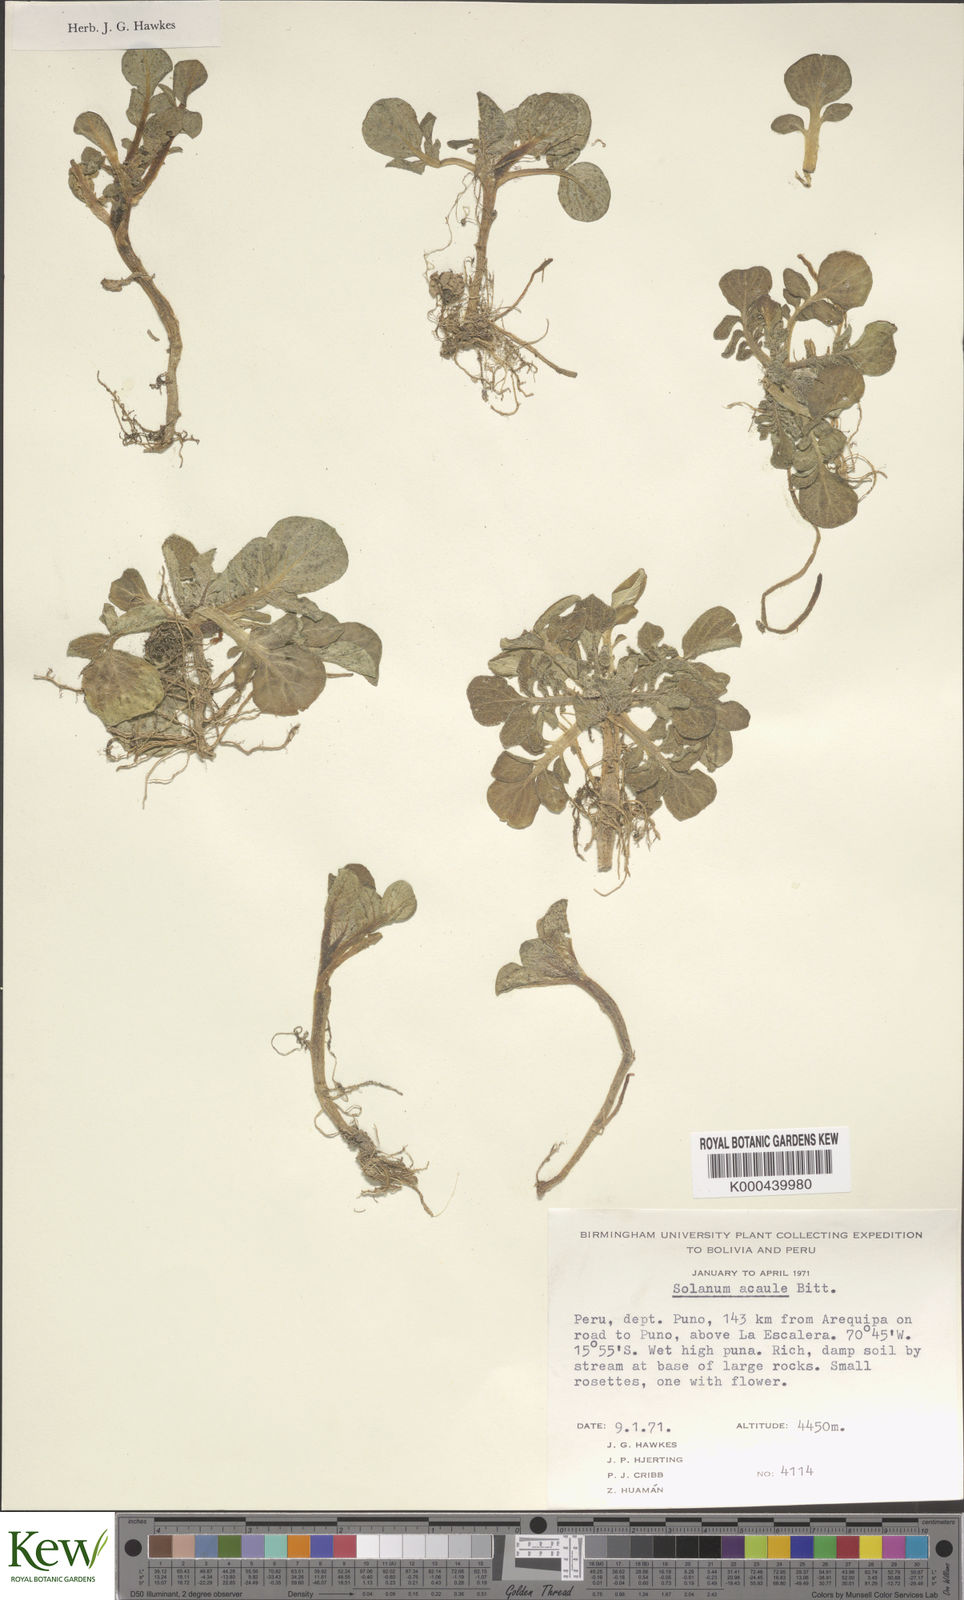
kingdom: Plantae
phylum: Tracheophyta
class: Magnoliopsida
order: Solanales
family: Solanaceae
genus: Solanum
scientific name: Solanum acaule
